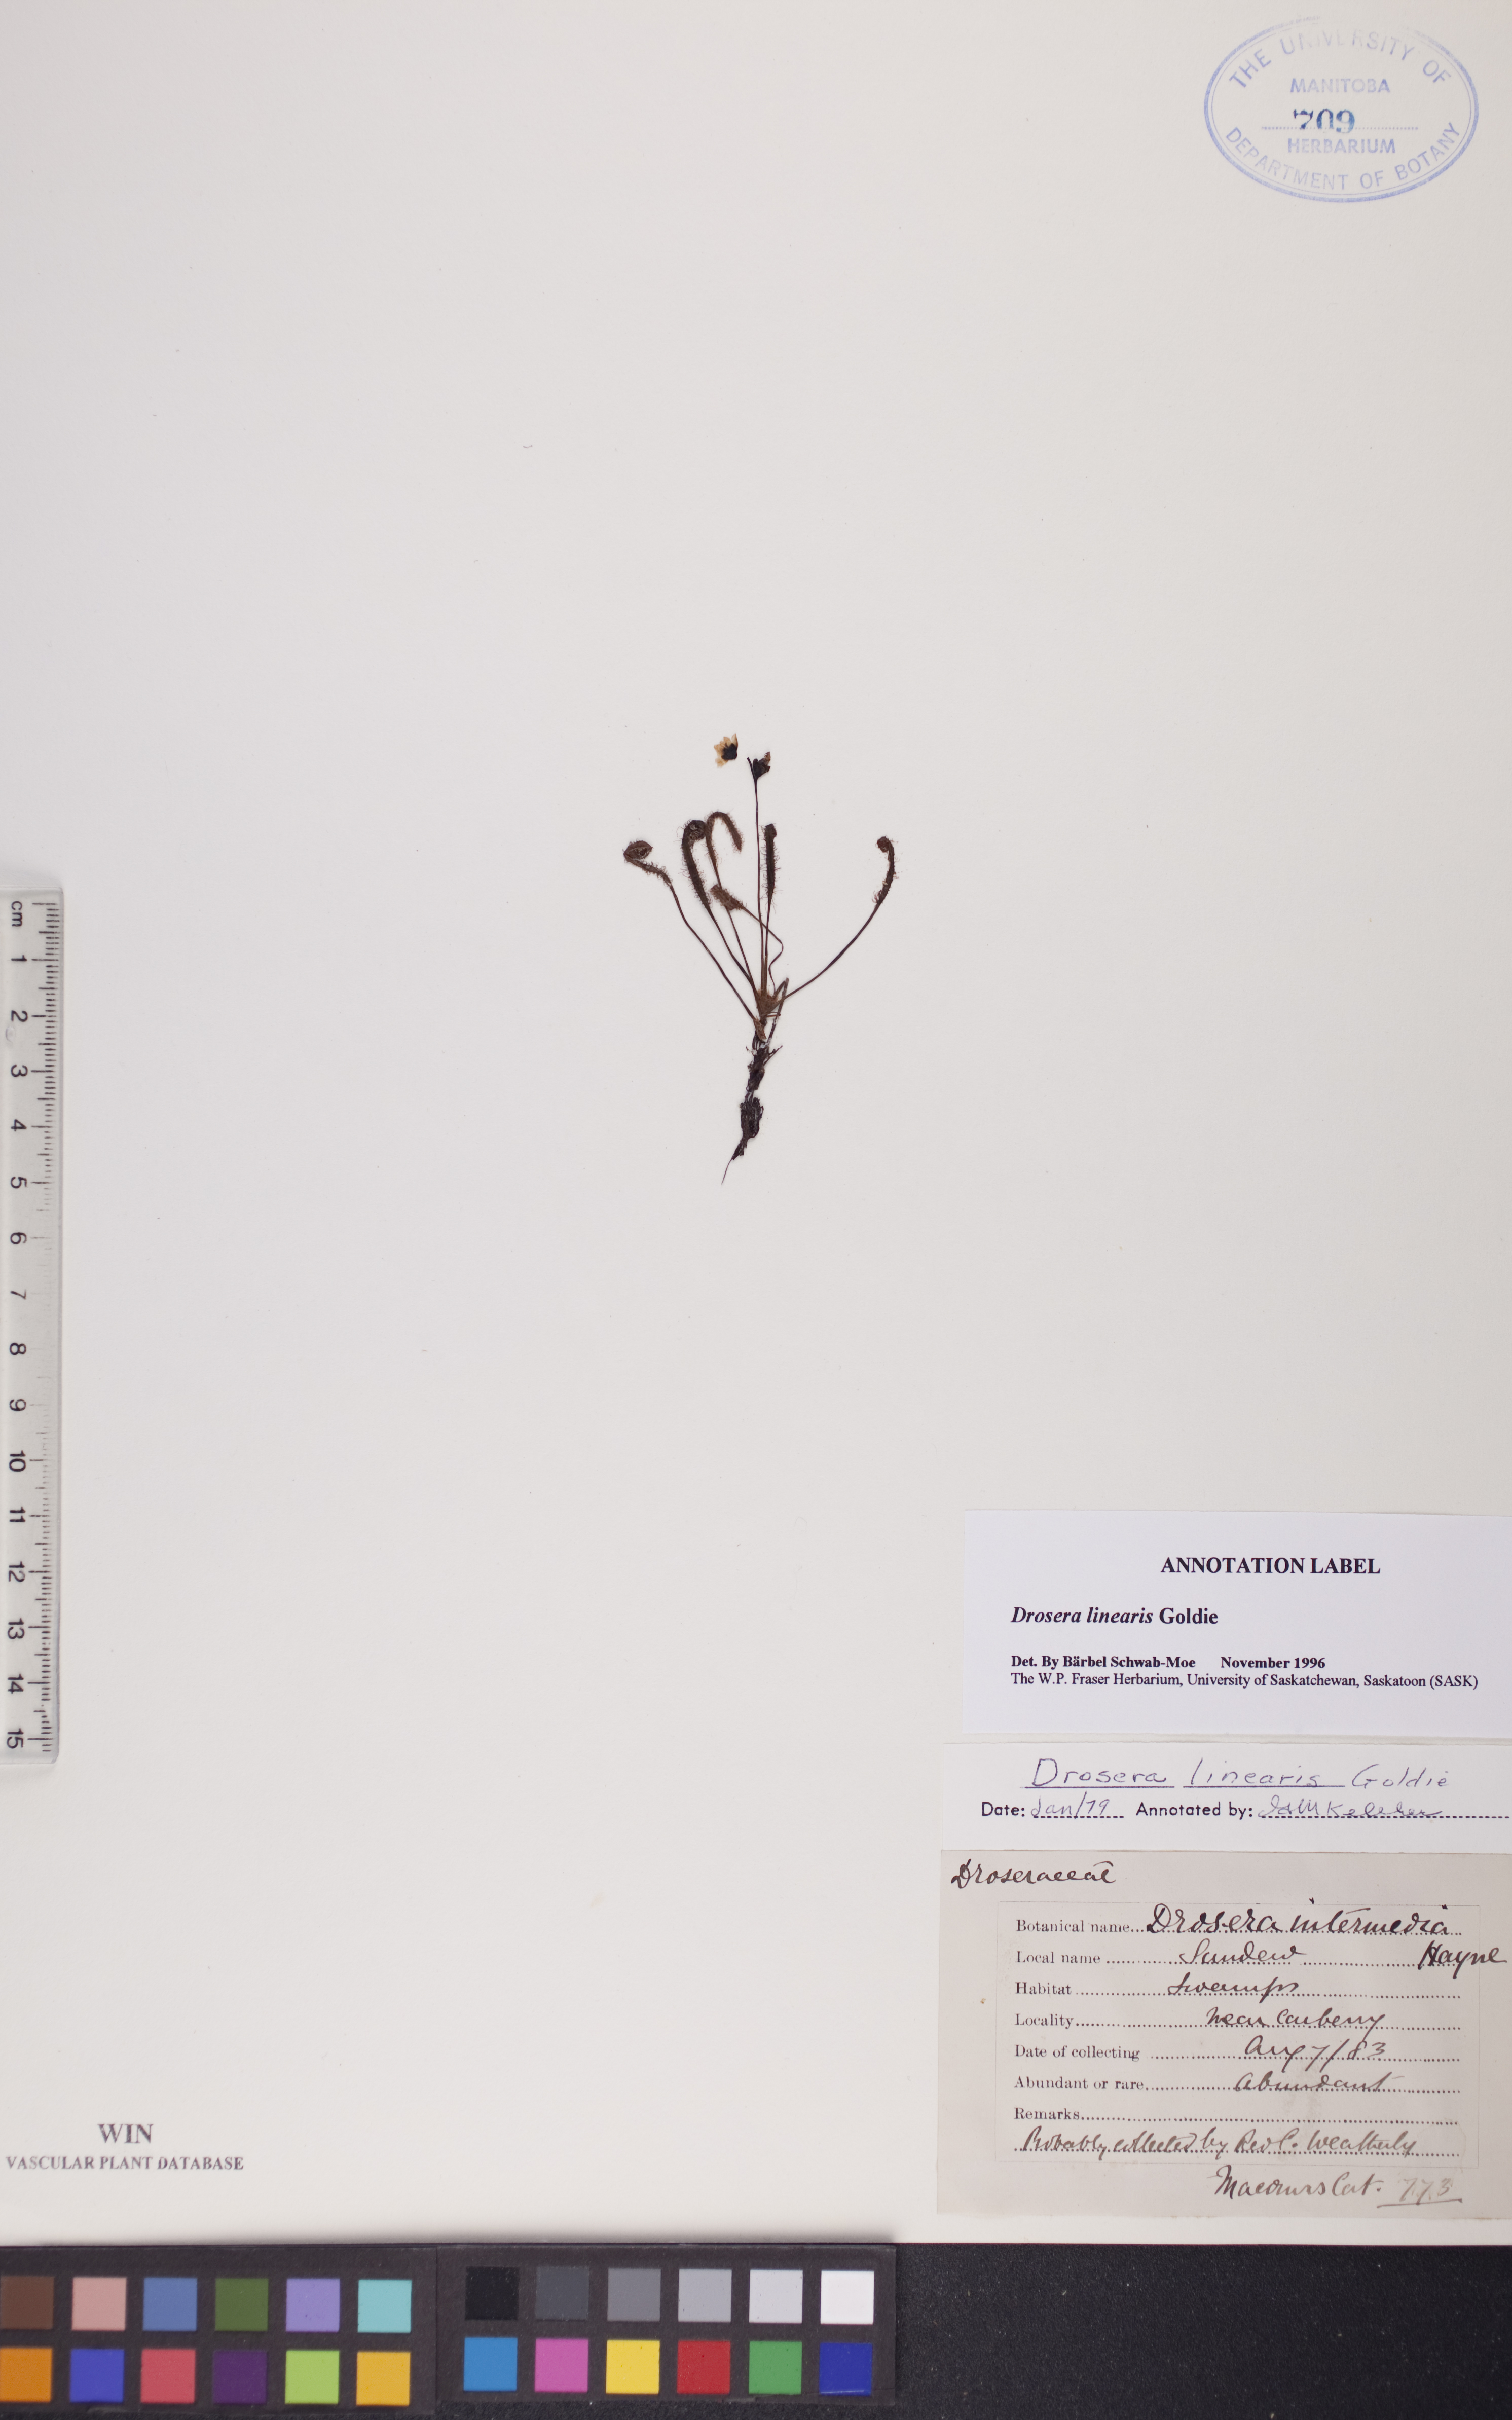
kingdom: Plantae
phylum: Tracheophyta
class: Magnoliopsida
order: Caryophyllales
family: Droseraceae
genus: Drosera
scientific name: Drosera linearis
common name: Linear-leaved sundew
